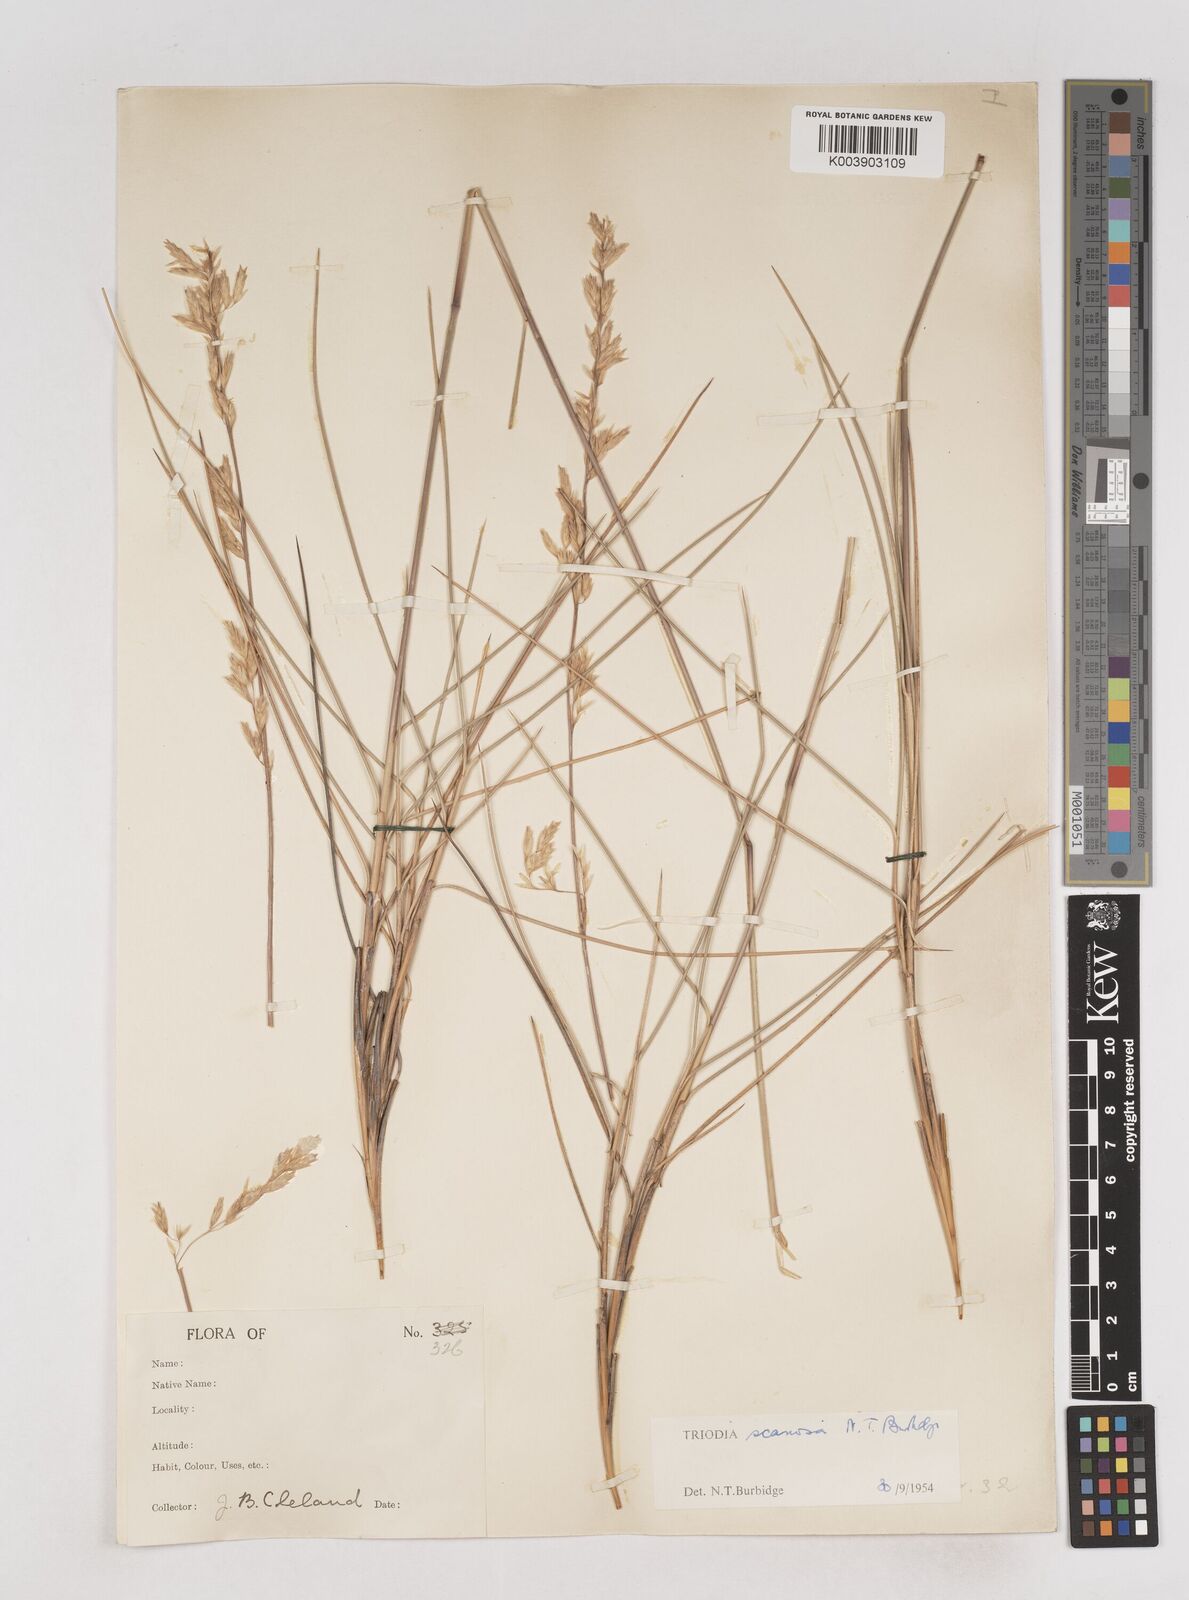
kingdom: Plantae
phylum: Tracheophyta
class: Liliopsida
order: Poales
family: Poaceae
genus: Triodia
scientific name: Triodia scariosa
